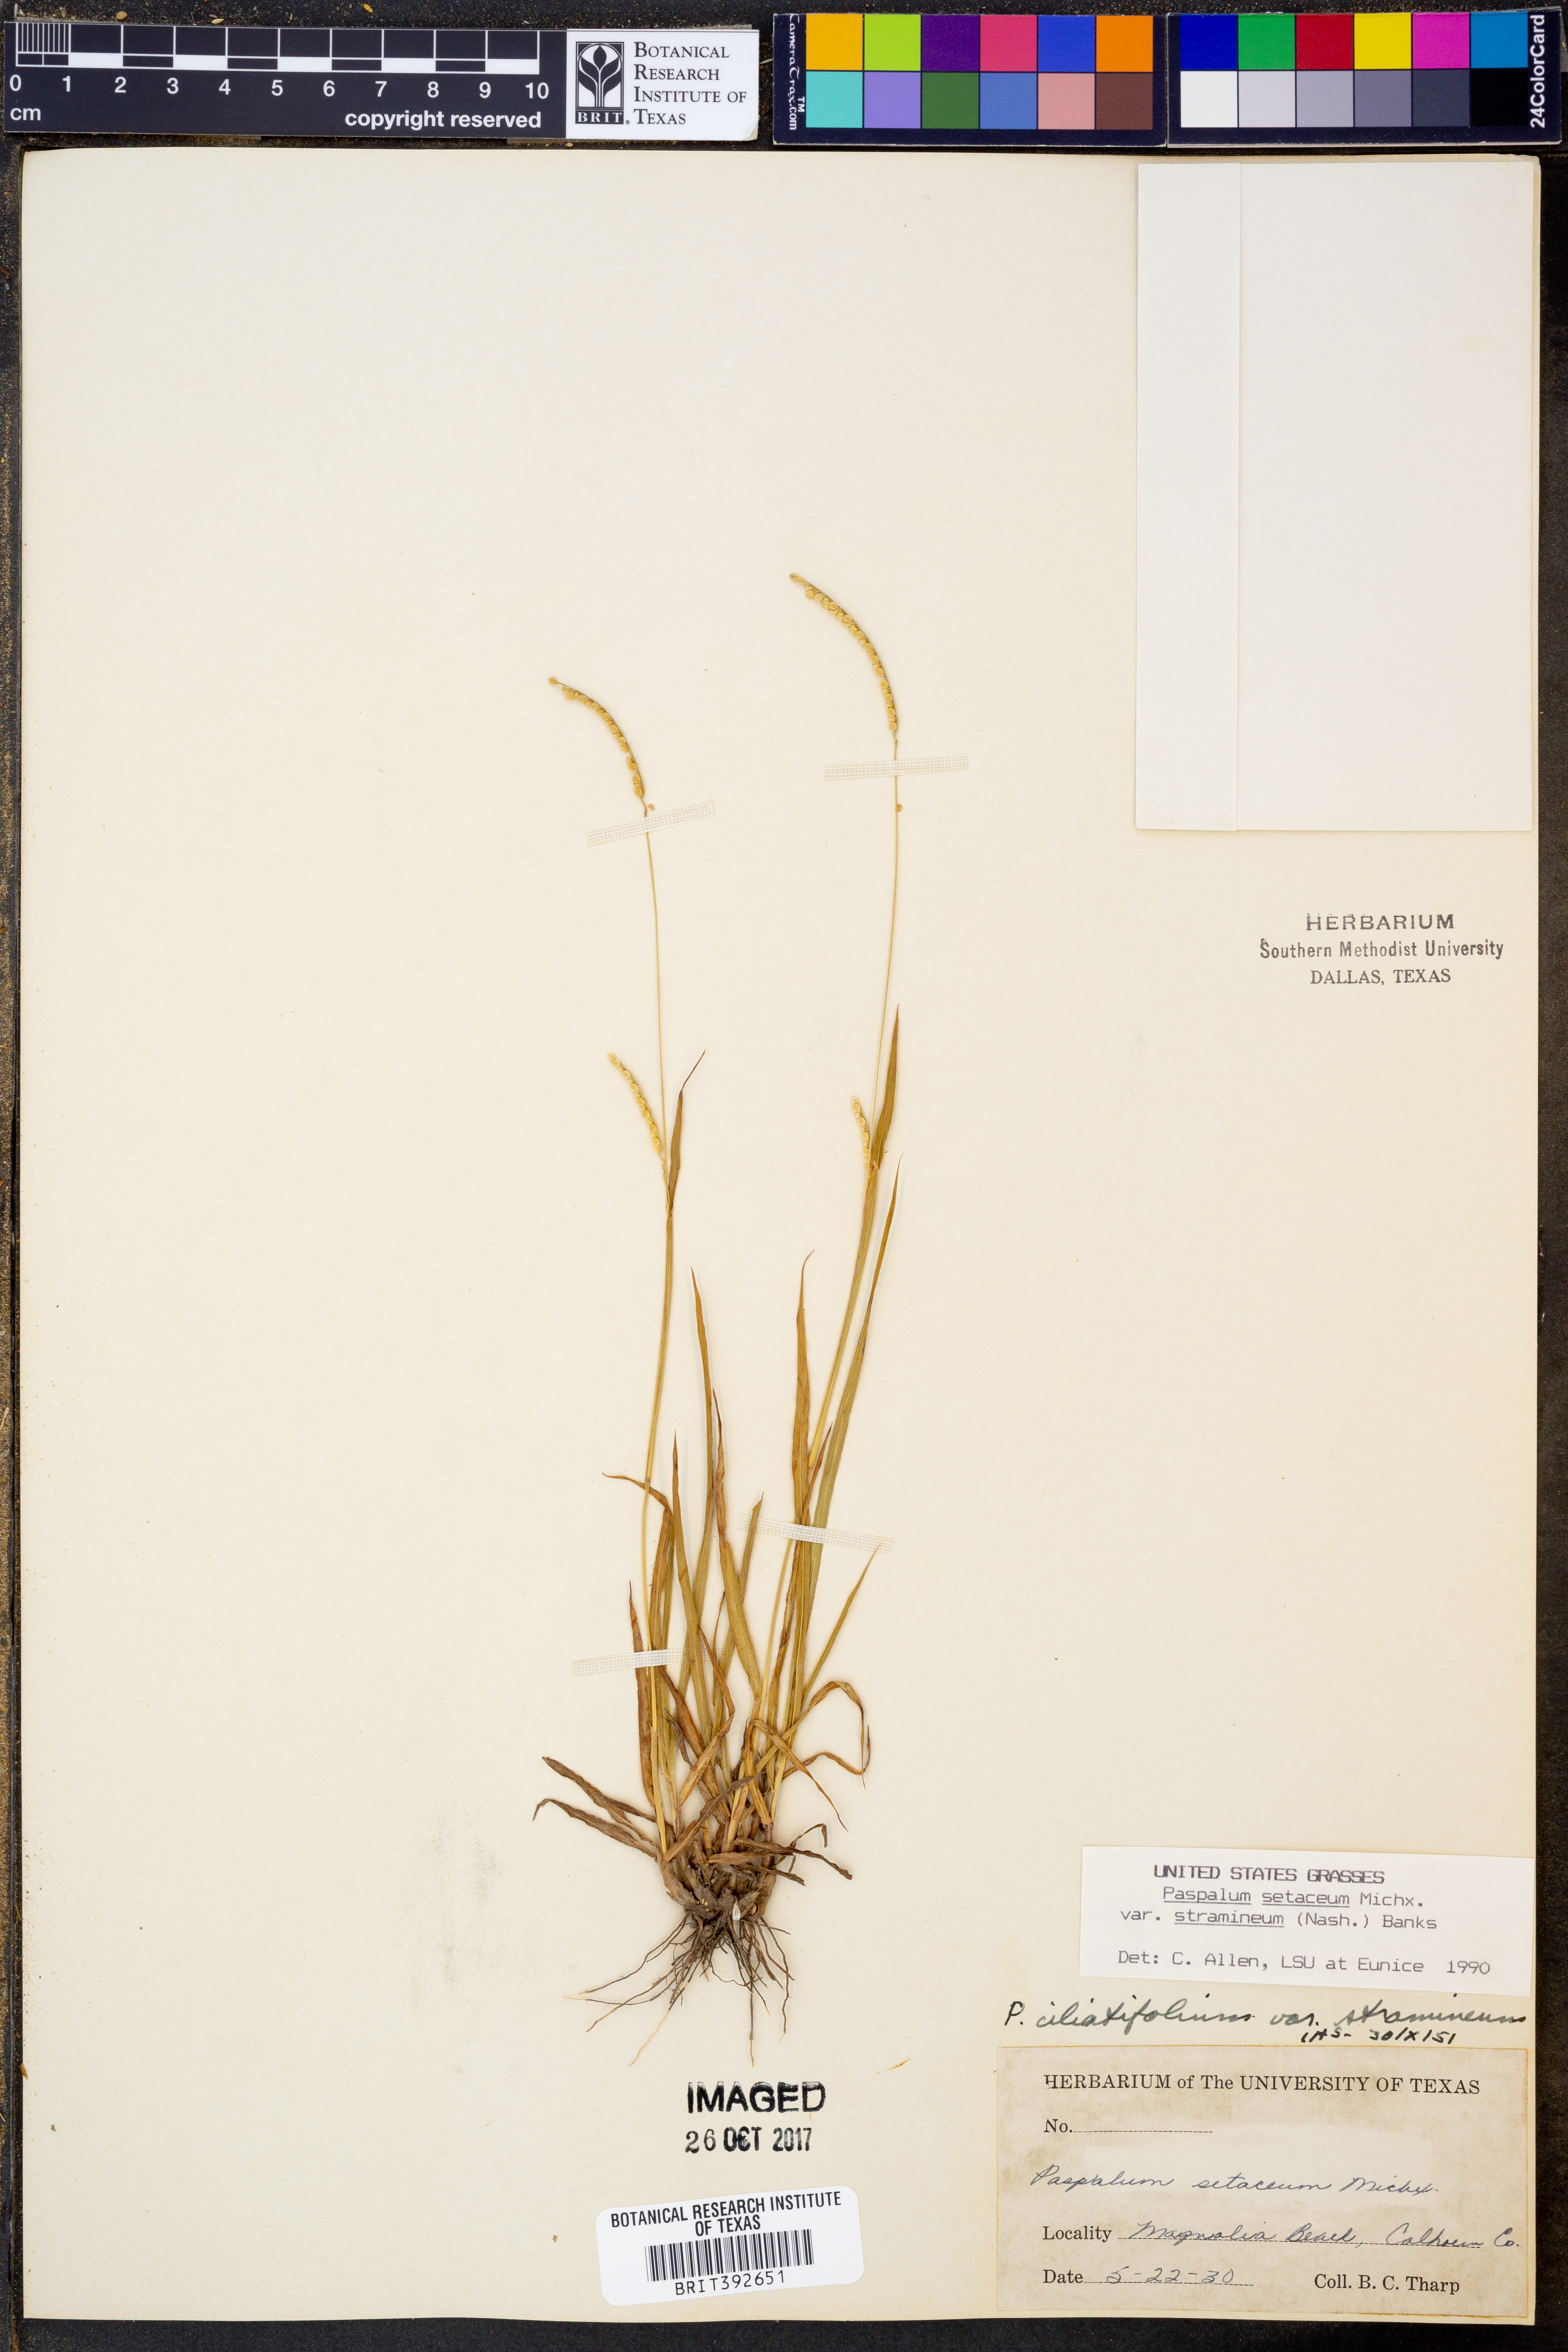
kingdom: Plantae
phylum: Tracheophyta
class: Liliopsida
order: Poales
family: Poaceae
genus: Paspalum
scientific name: Paspalum setaceum
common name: Slender paspalum
